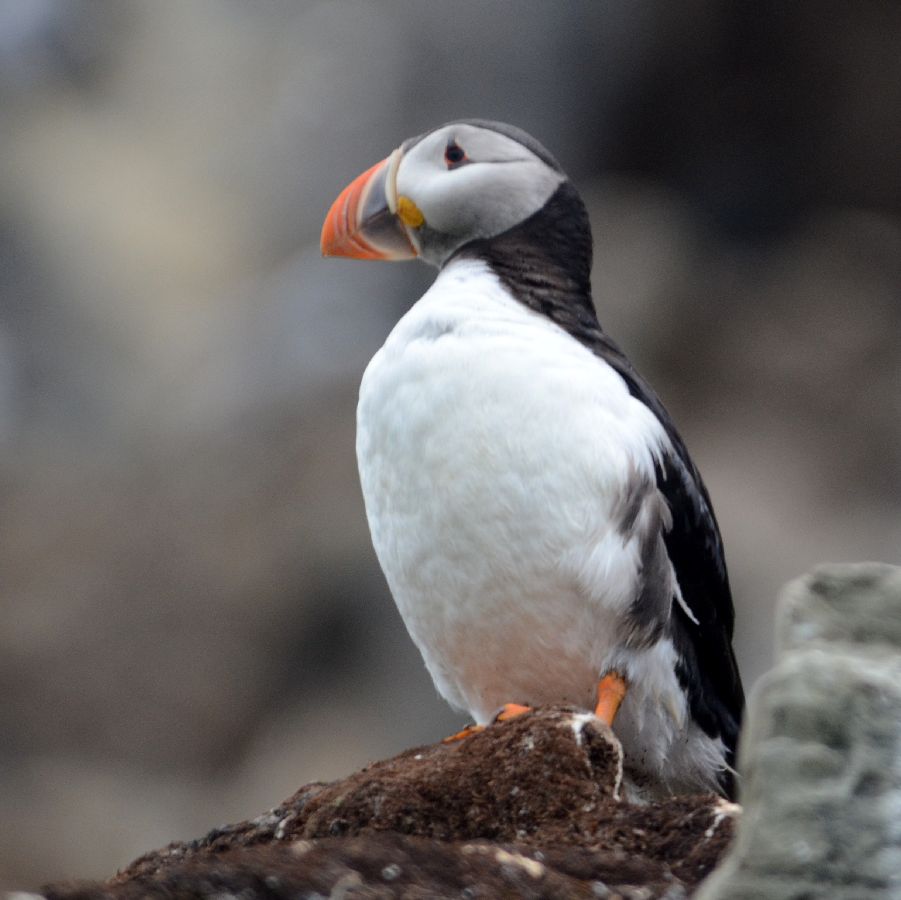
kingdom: Animalia
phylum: Chordata
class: Aves
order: Charadriiformes
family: Alcidae
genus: Fratercula
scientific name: Fratercula arctica
